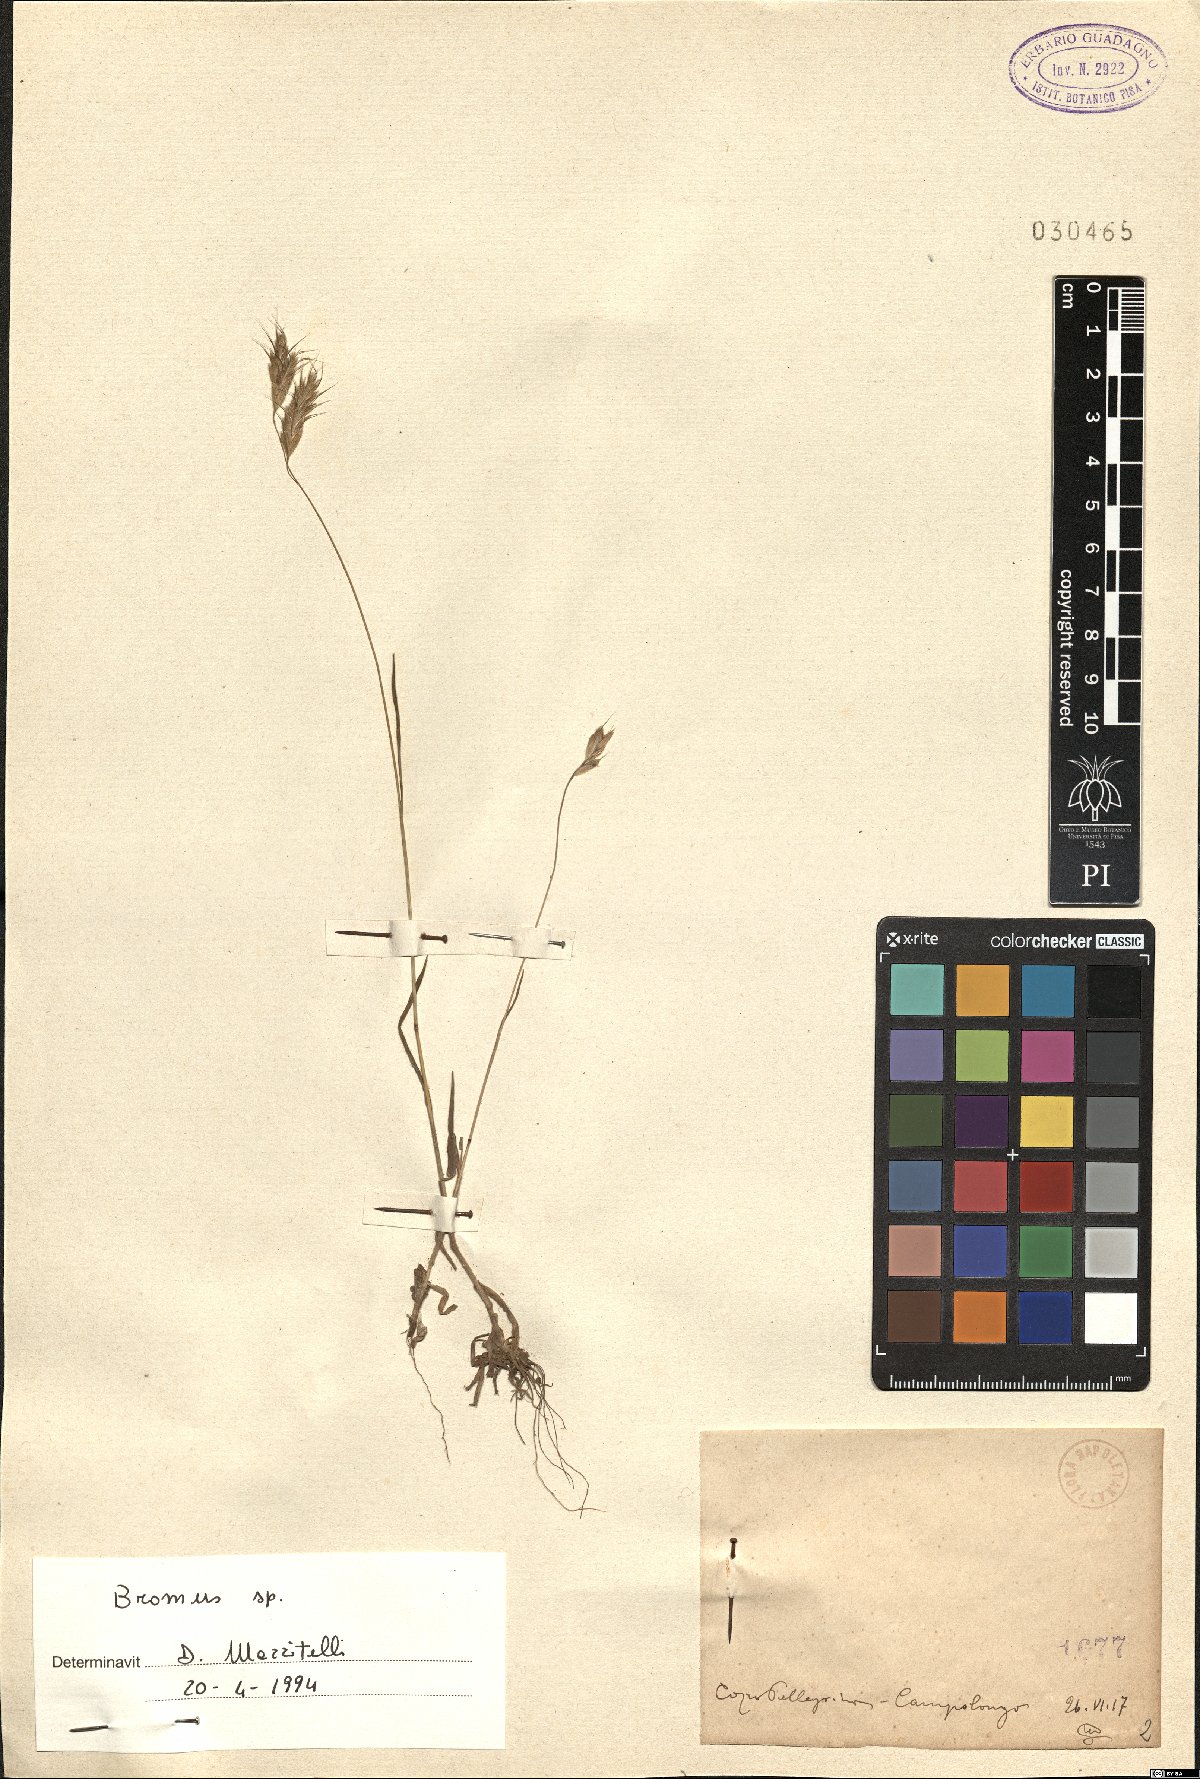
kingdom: Plantae
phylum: Tracheophyta
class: Liliopsida
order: Poales
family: Poaceae
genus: Bromus
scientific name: Bromus
